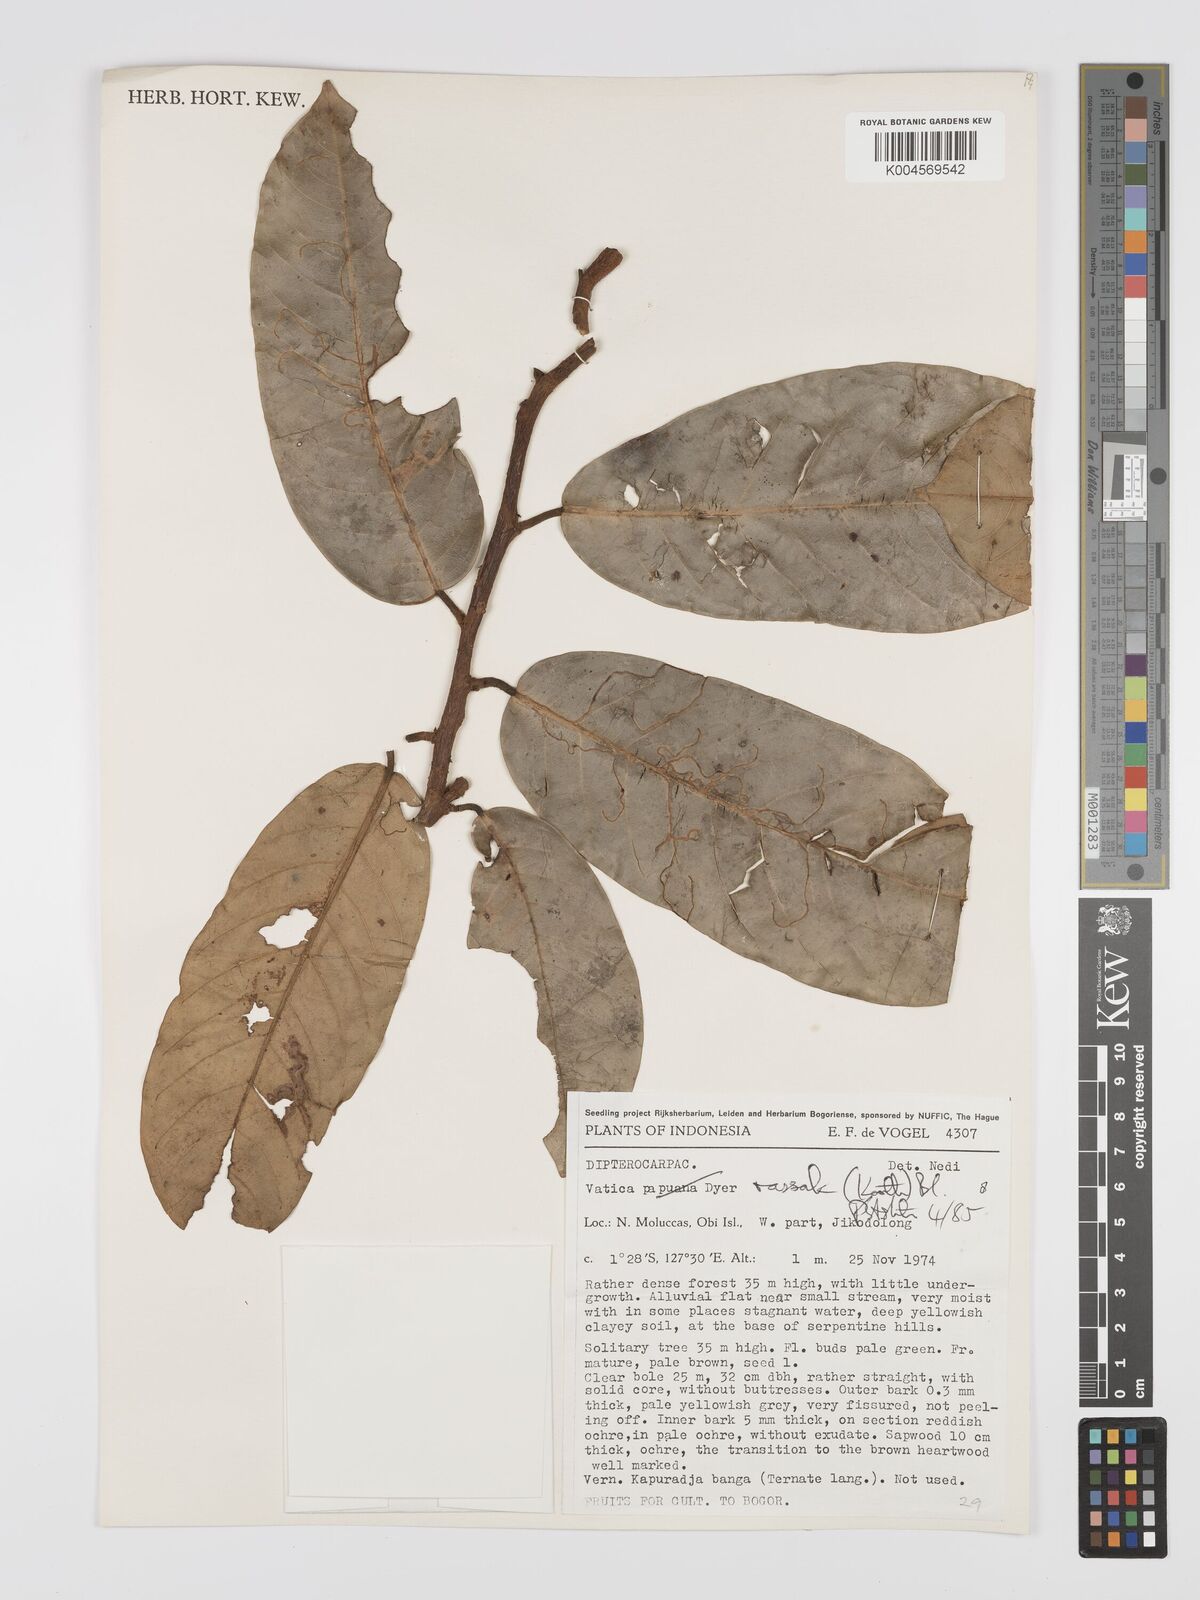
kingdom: Plantae
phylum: Tracheophyta
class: Magnoliopsida
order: Malvales
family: Dipterocarpaceae
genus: Vatica
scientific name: Vatica rassak
